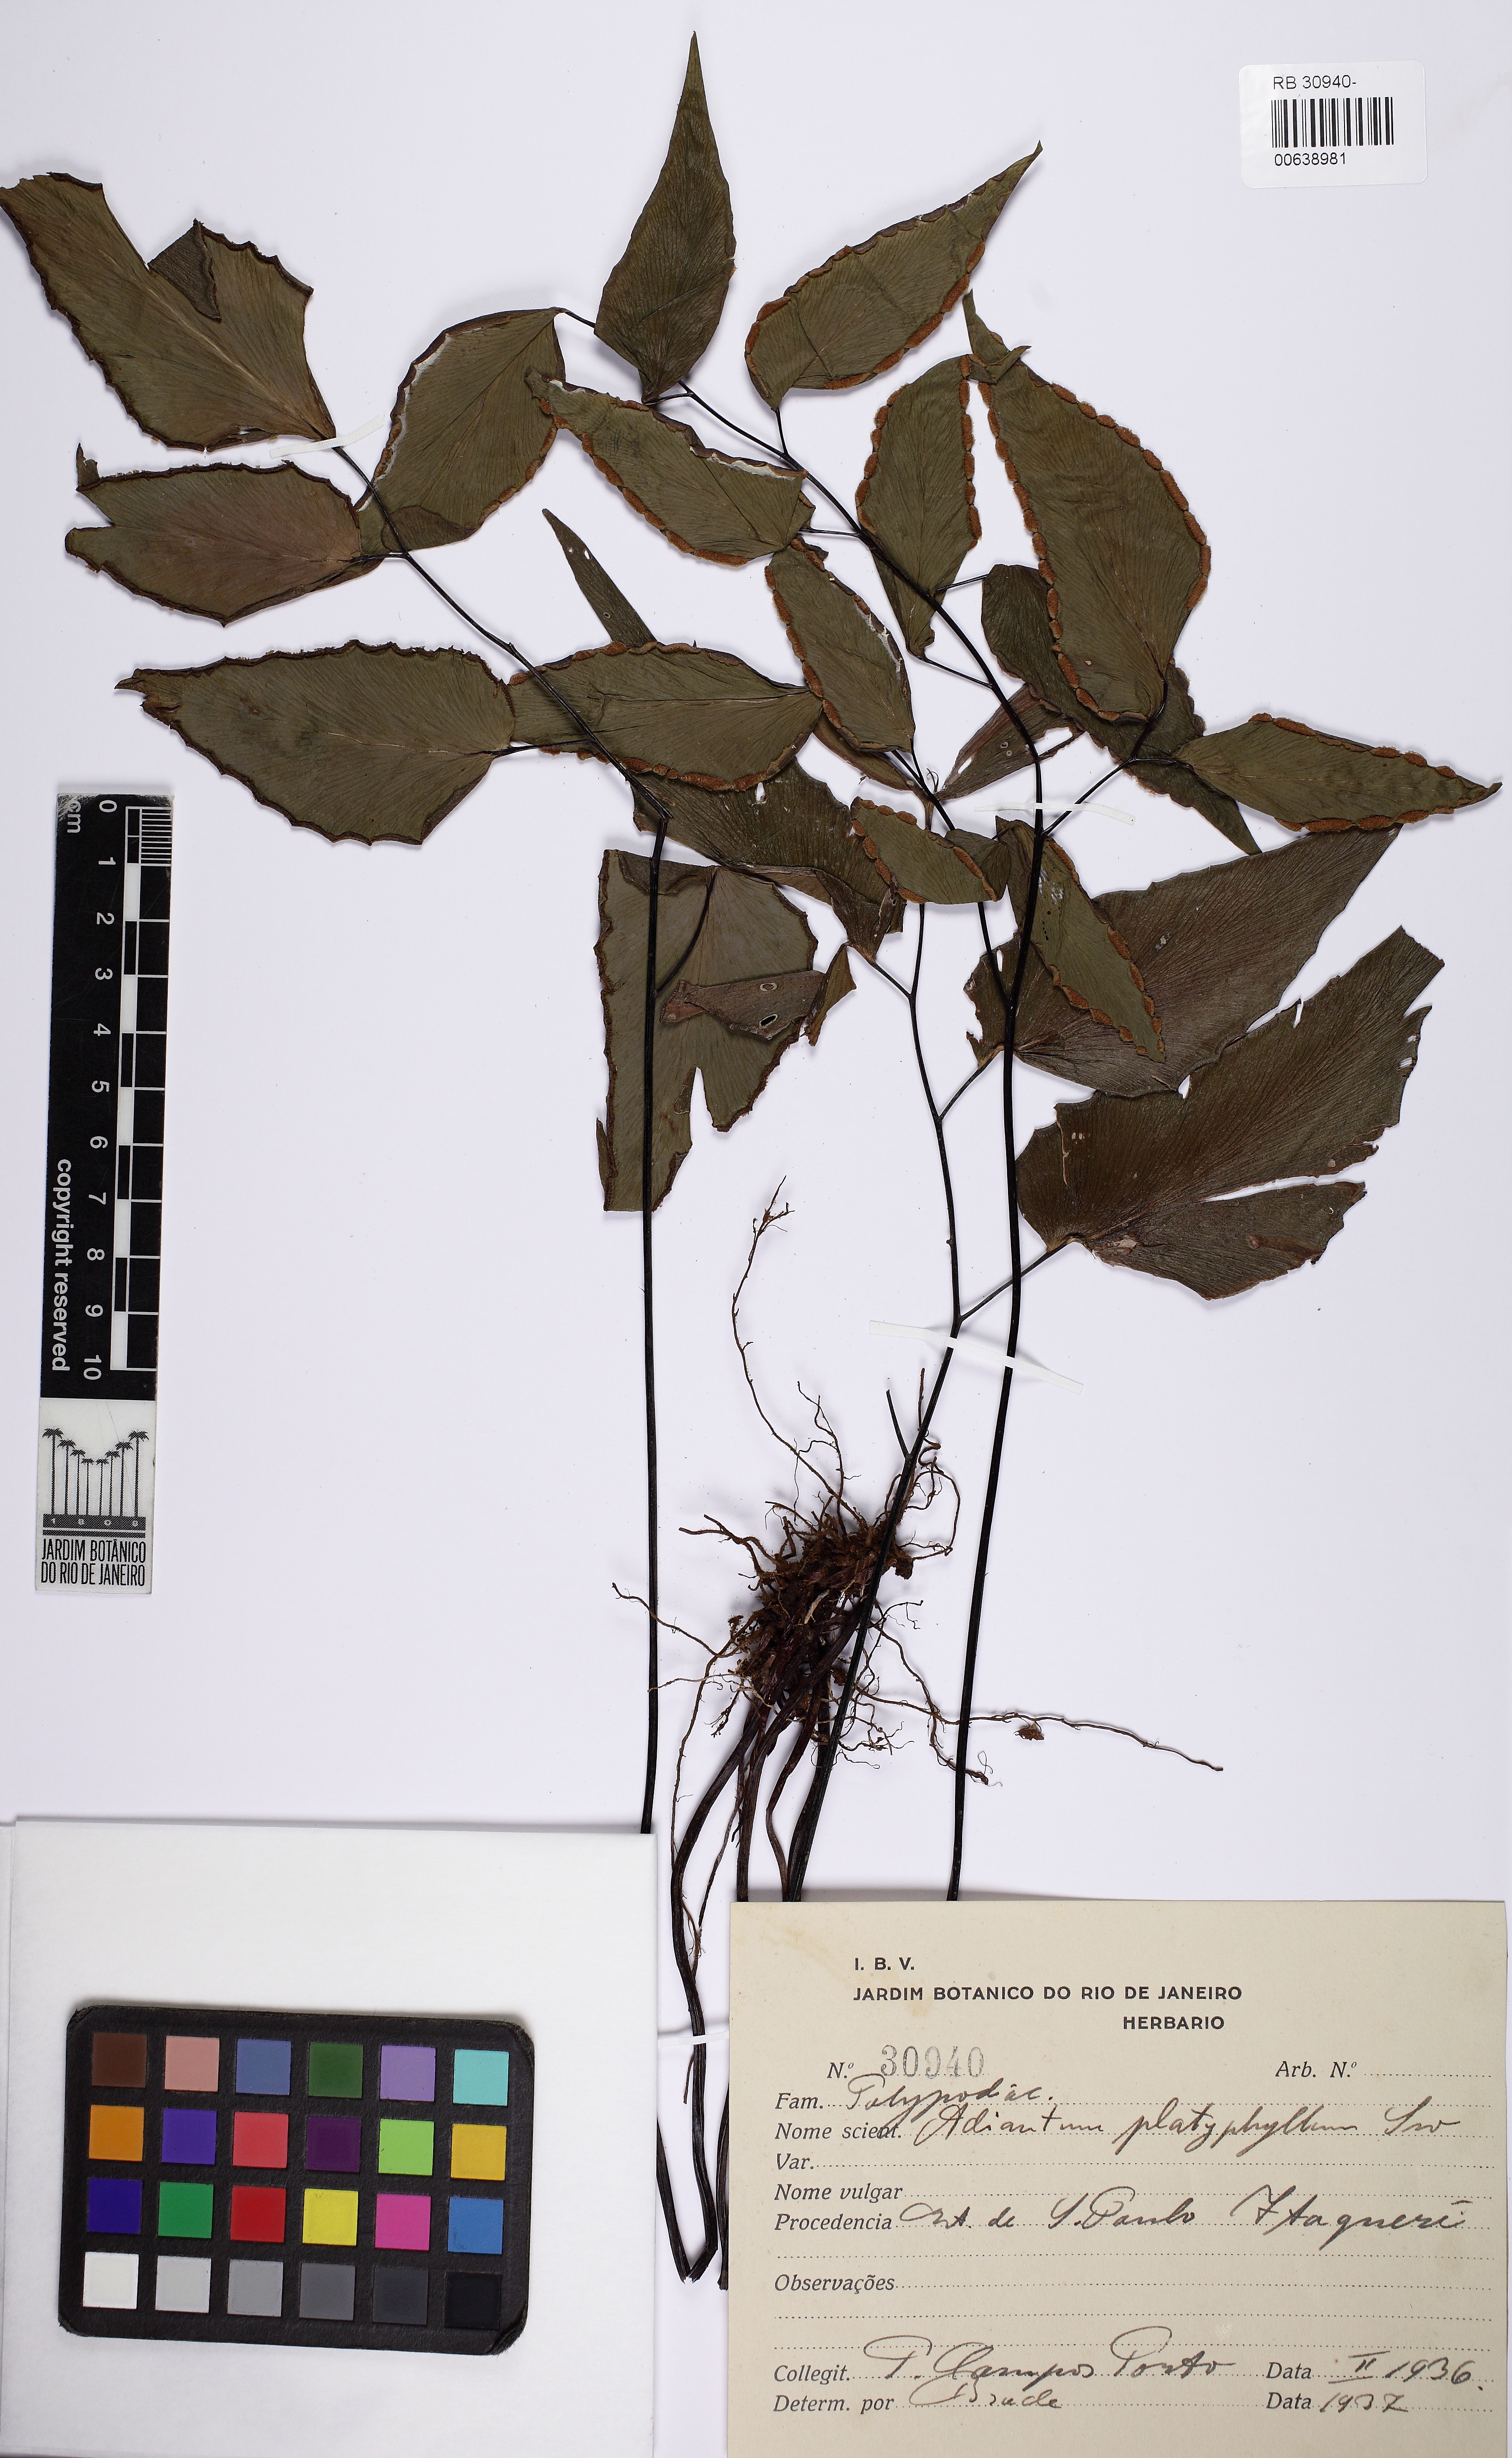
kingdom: Plantae
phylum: Tracheophyta
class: Polypodiopsida
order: Polypodiales
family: Pteridaceae
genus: Adiantum
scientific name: Adiantum platyphyllum
